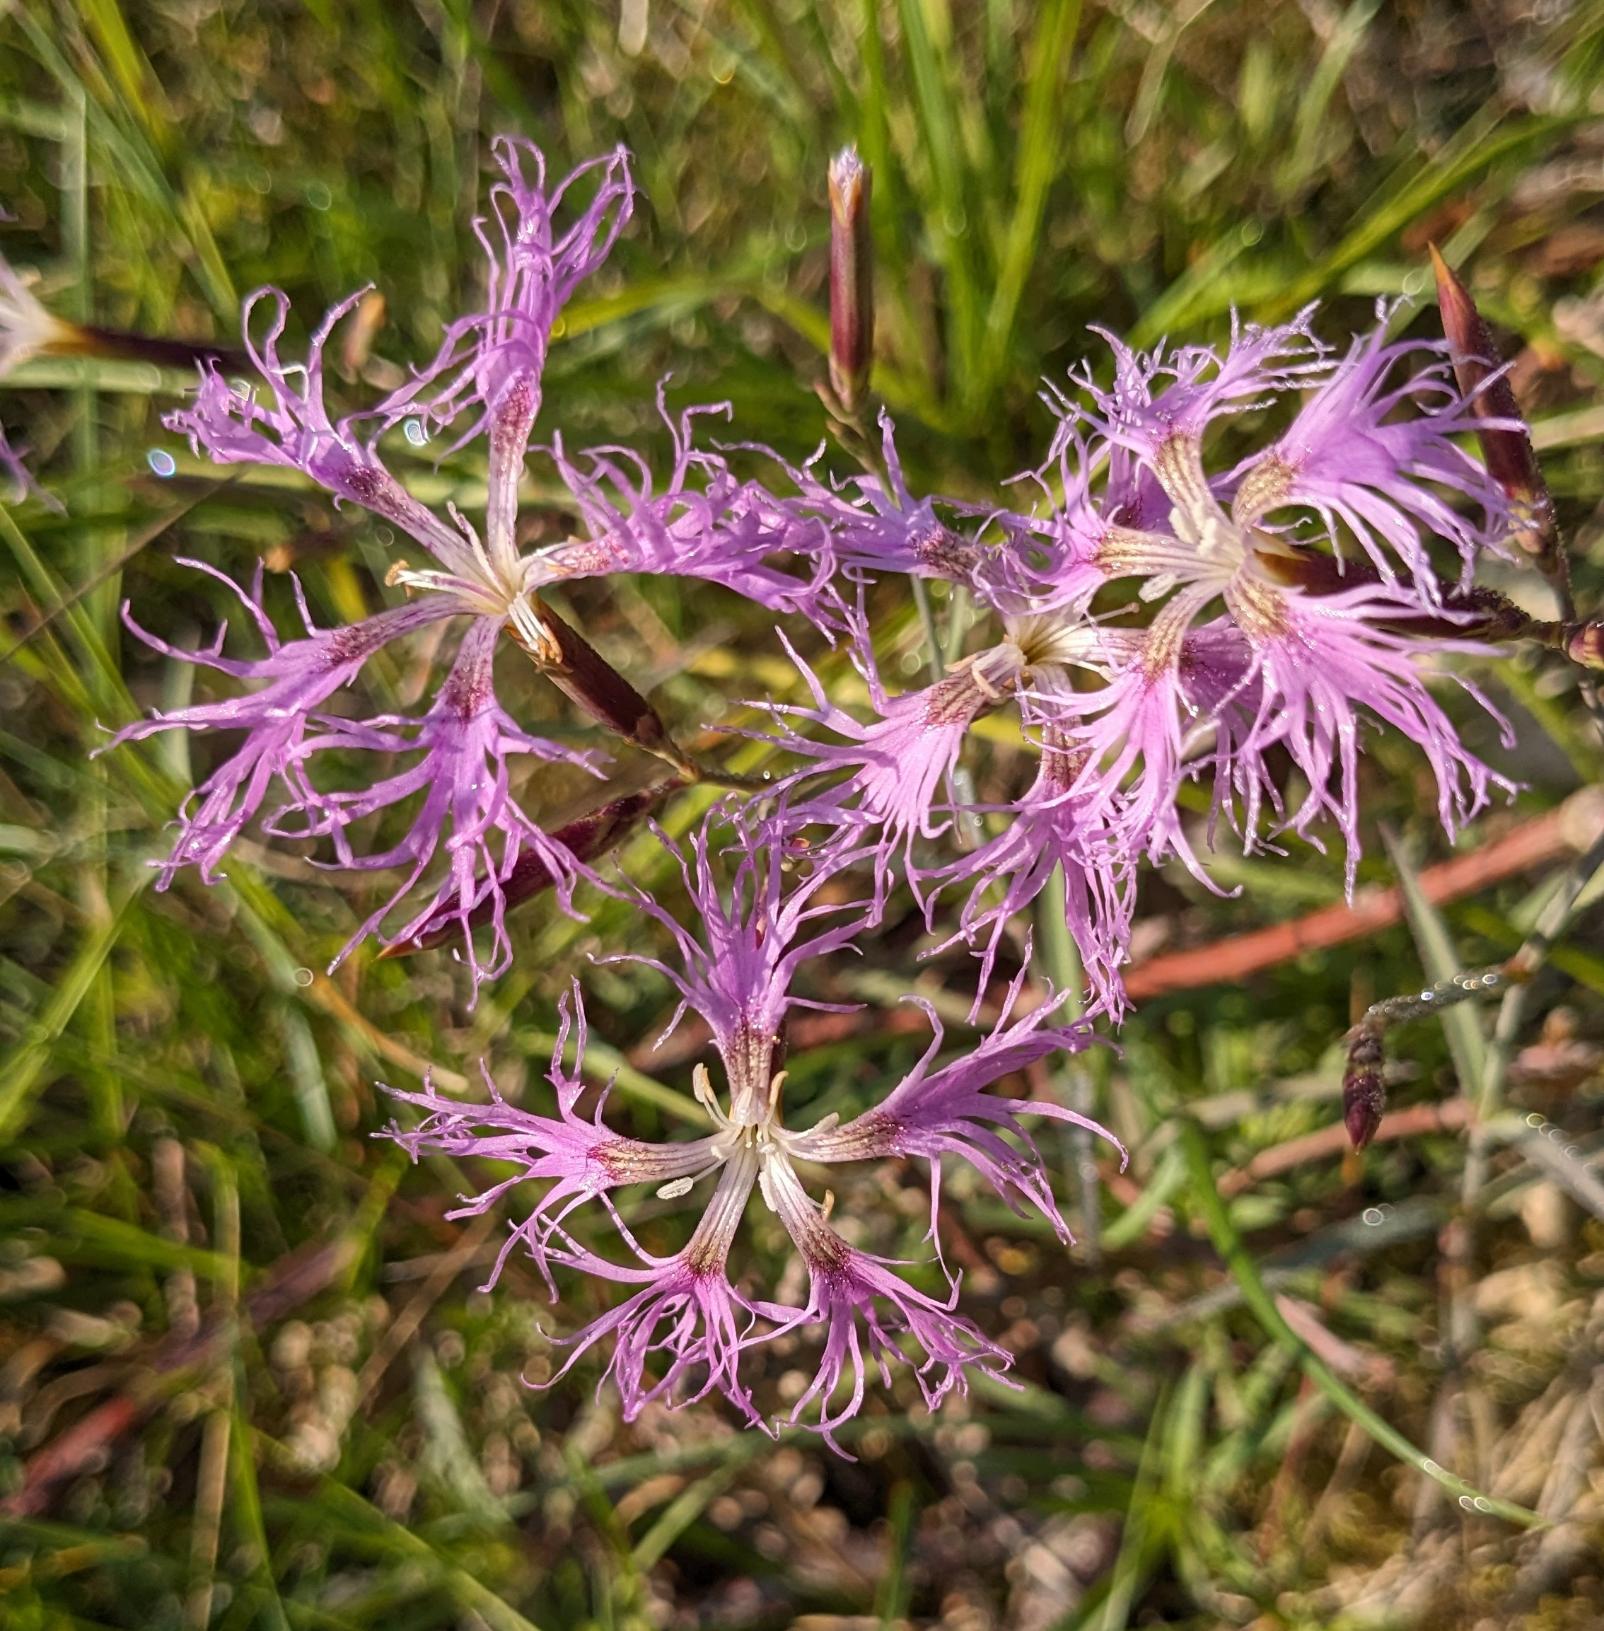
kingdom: Plantae
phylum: Tracheophyta
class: Magnoliopsida
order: Caryophyllales
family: Caryophyllaceae
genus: Dianthus
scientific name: Dianthus superbus
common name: Strand-nellike
